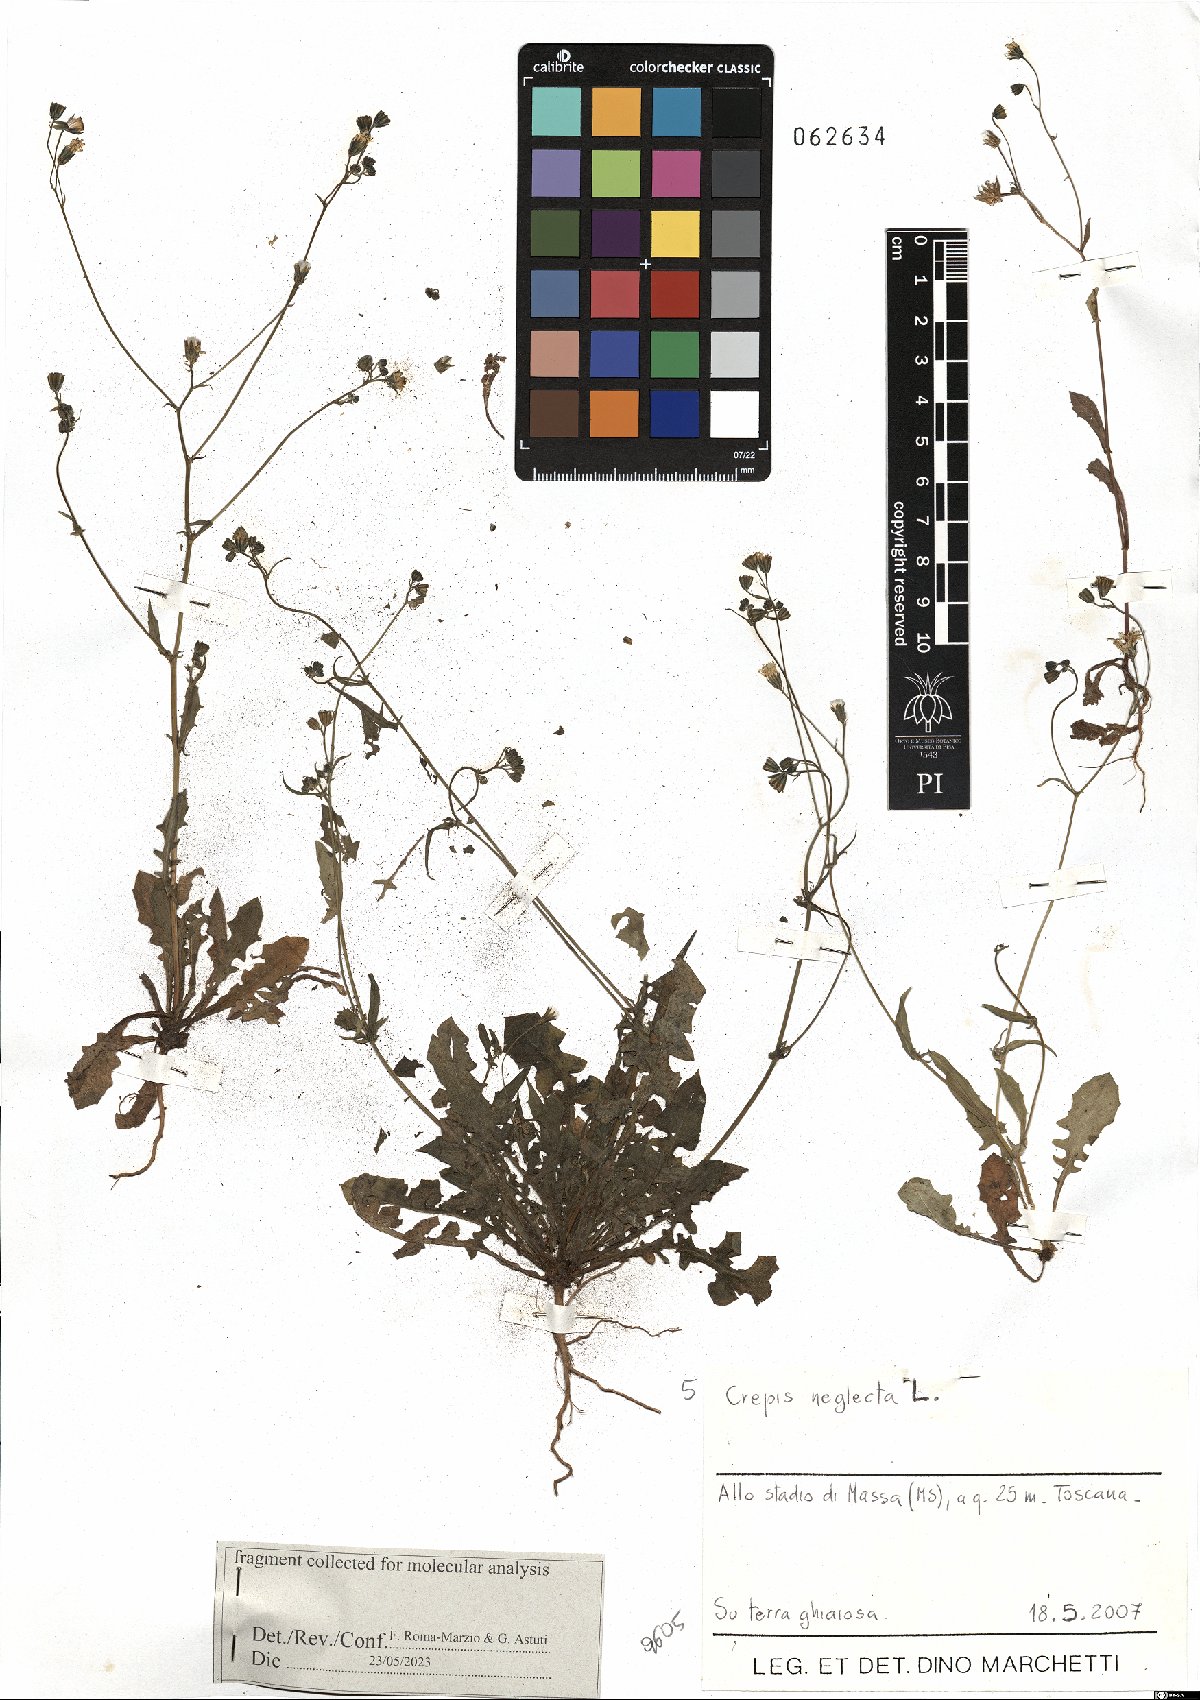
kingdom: Plantae
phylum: Tracheophyta
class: Magnoliopsida
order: Asterales
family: Asteraceae
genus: Crepis
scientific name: Crepis neglecta
